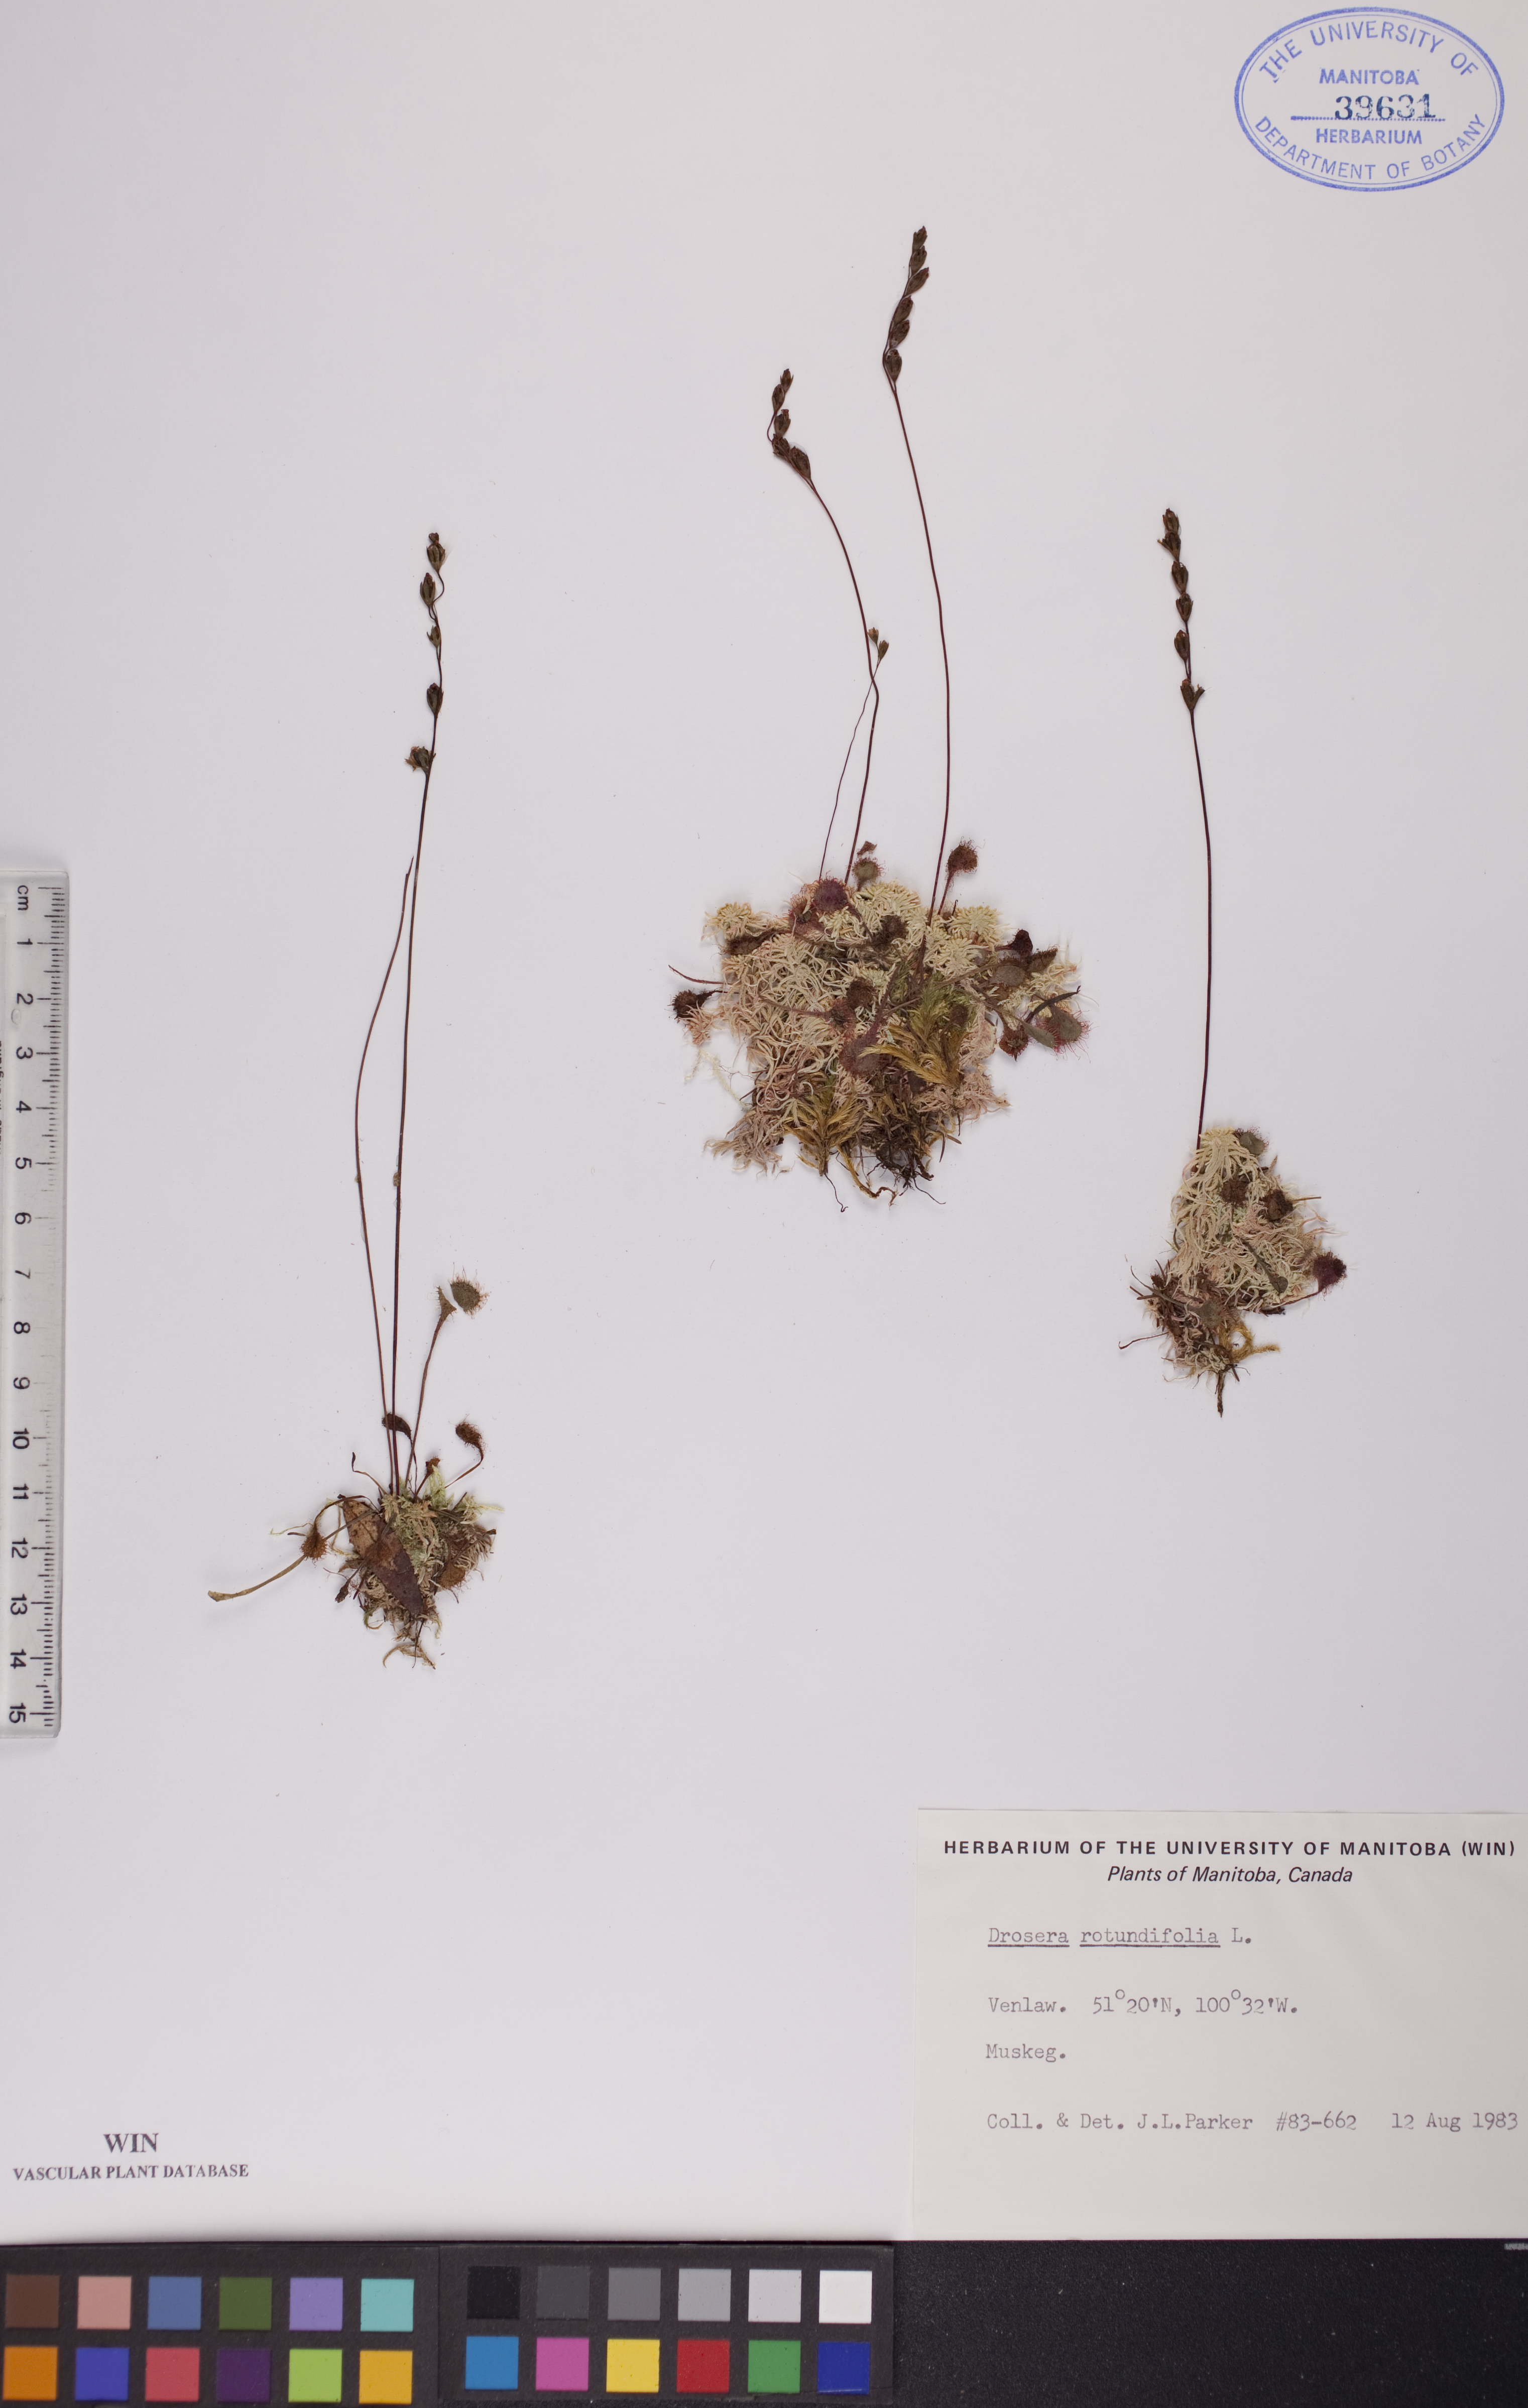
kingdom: Plantae
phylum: Tracheophyta
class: Magnoliopsida
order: Caryophyllales
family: Droseraceae
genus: Drosera
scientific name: Drosera rotundifolia
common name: Round-leaved sundew
